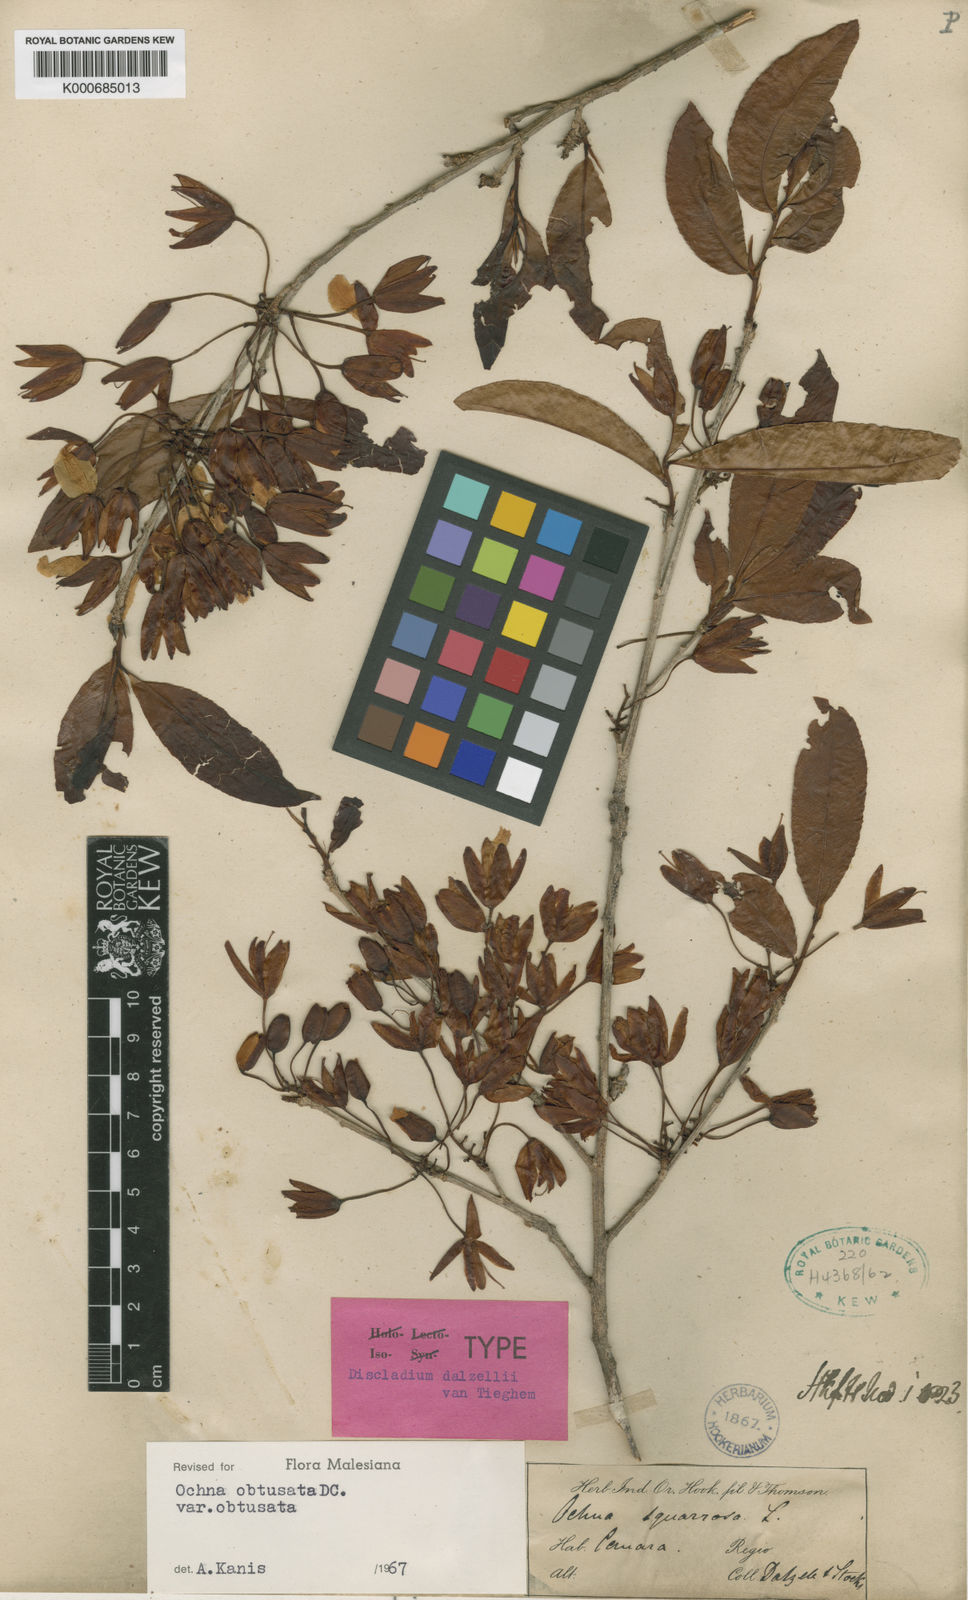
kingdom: Plantae
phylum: Tracheophyta
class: Magnoliopsida
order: Malpighiales
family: Ochnaceae
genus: Ochna
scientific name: Ochna obtusata
